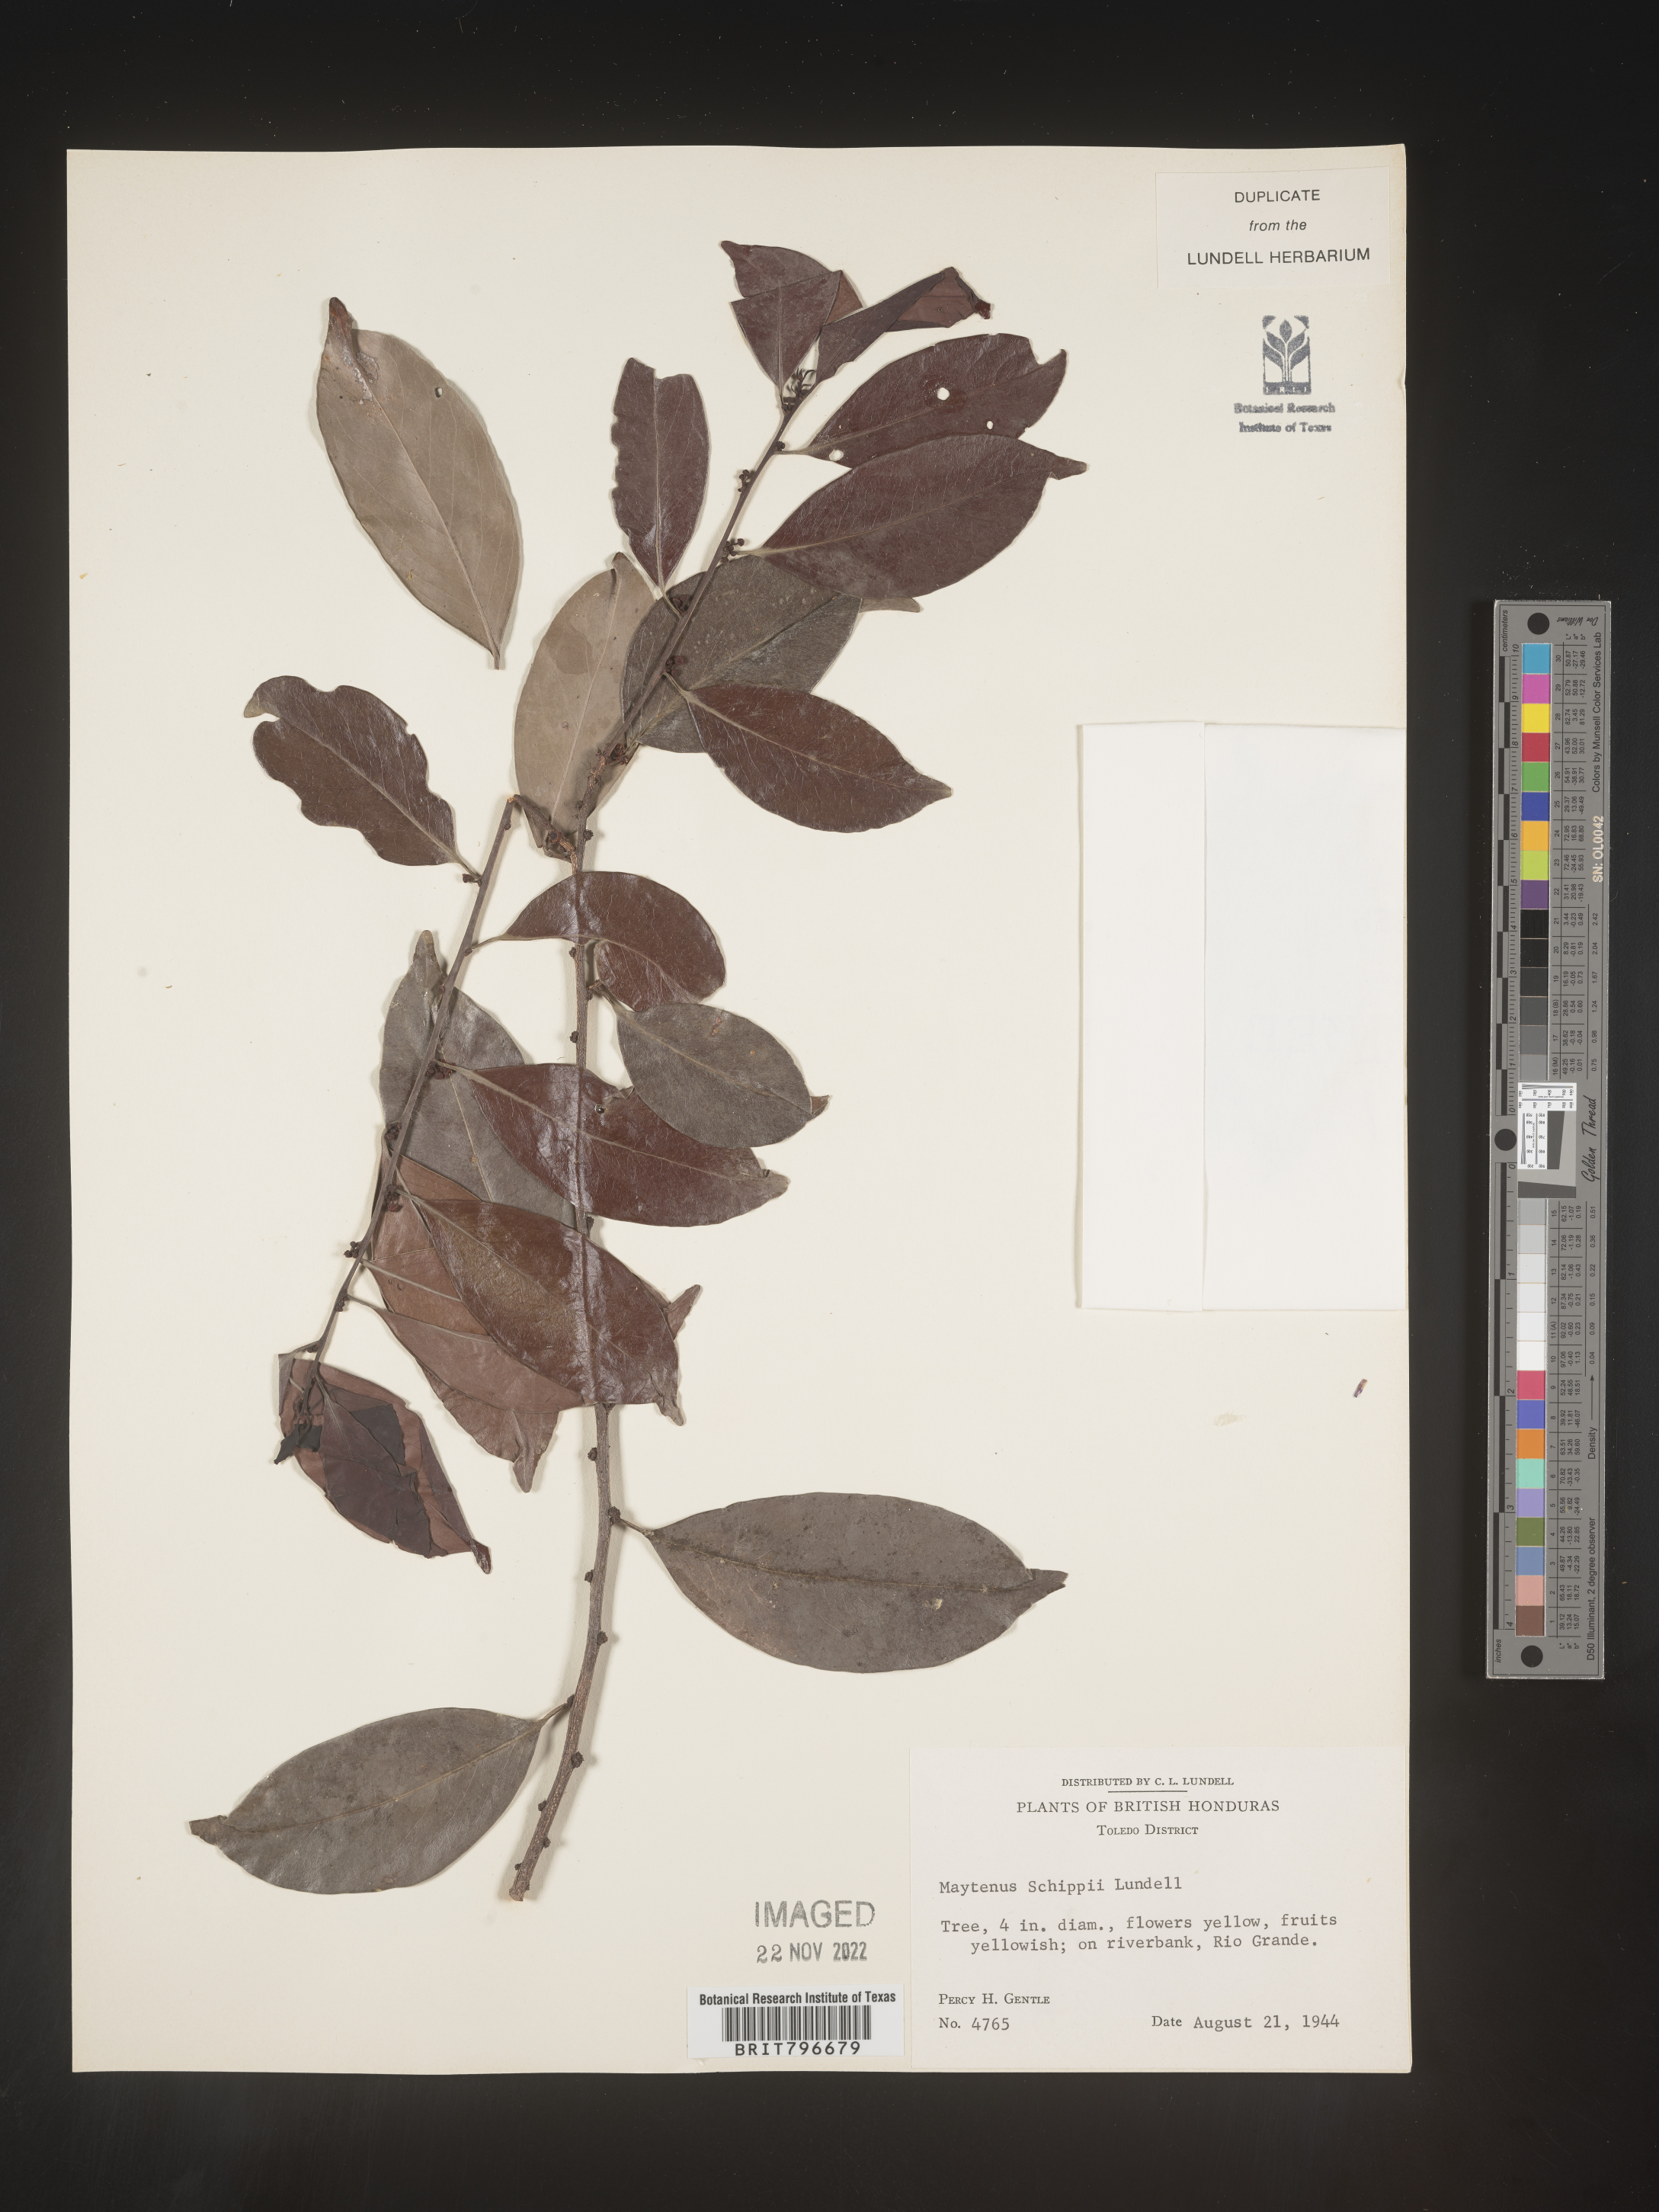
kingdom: Plantae
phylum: Tracheophyta
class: Magnoliopsida
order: Celastrales
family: Celastraceae
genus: Monteverdia
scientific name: Monteverdia schippii
